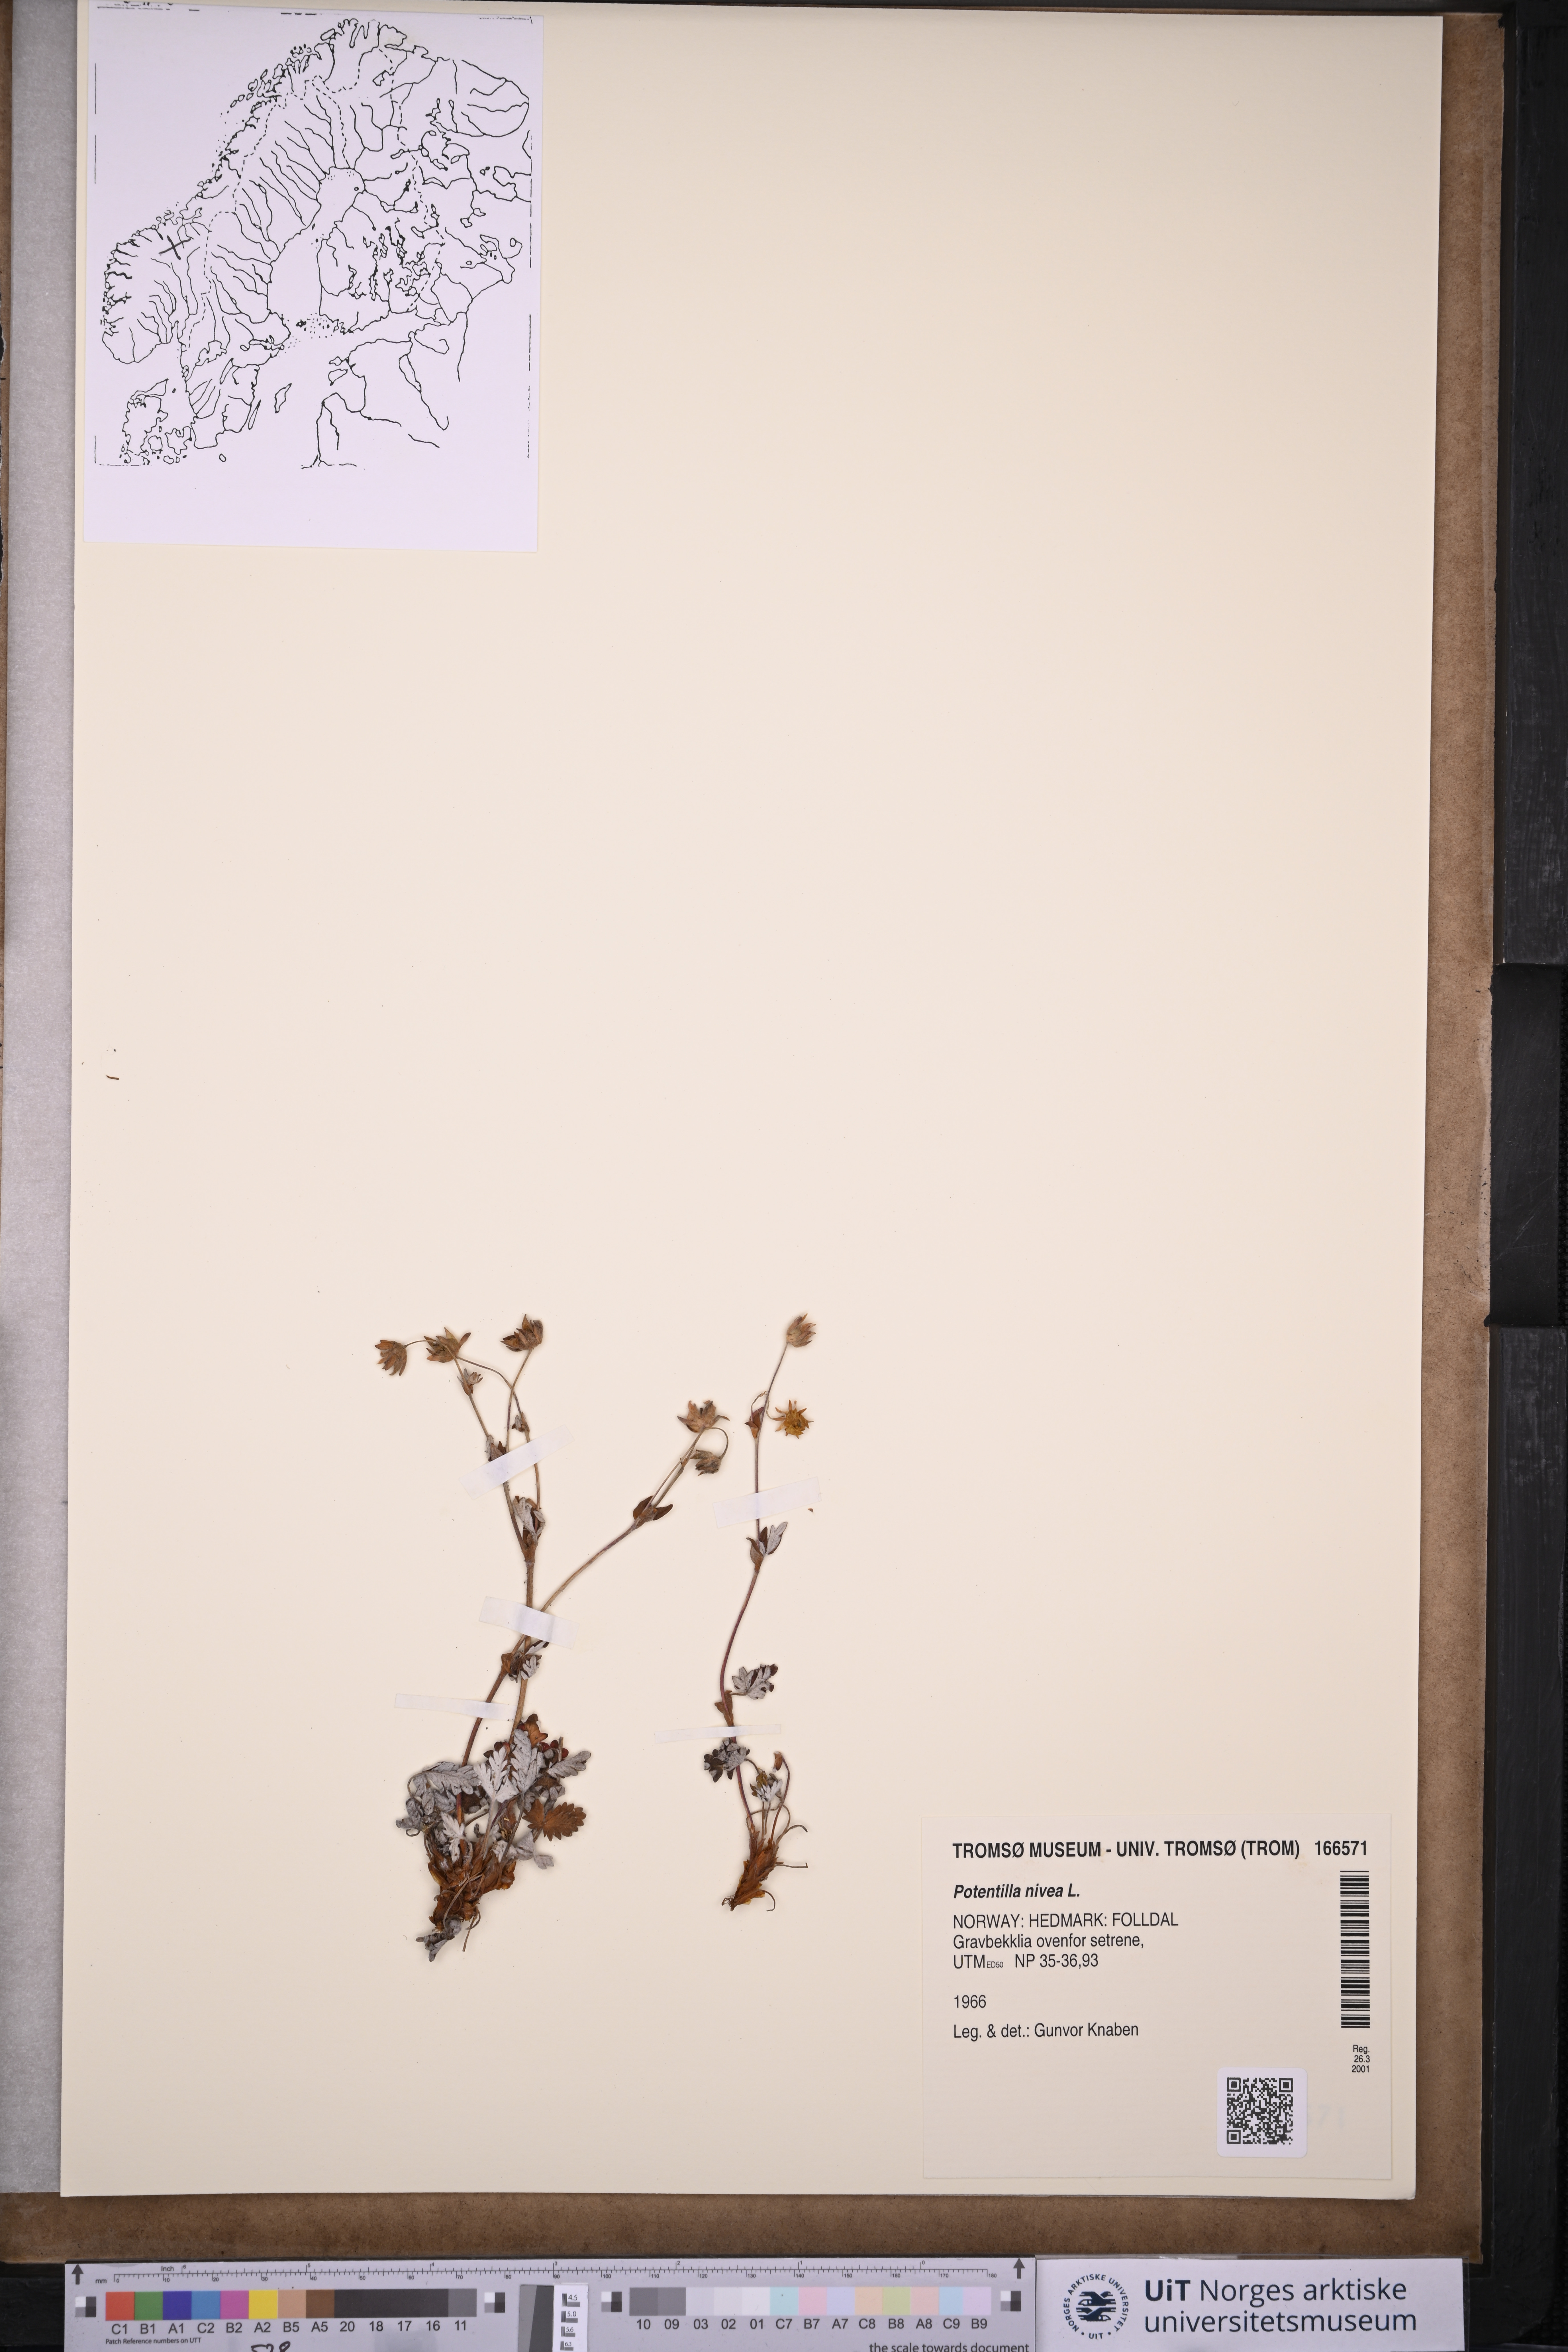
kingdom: Plantae
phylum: Tracheophyta
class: Magnoliopsida
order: Rosales
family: Rosaceae
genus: Potentilla
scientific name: Potentilla arenosa
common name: Bluff cinquefoil
